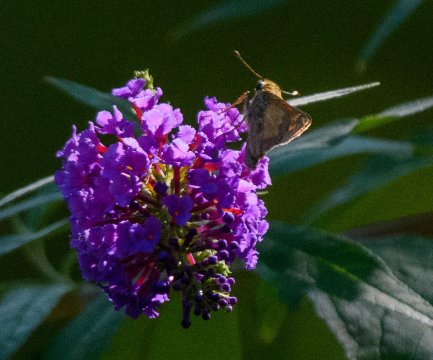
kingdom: Animalia
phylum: Arthropoda
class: Insecta
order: Lepidoptera
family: Hesperiidae
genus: Atalopedes
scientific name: Atalopedes campestris
